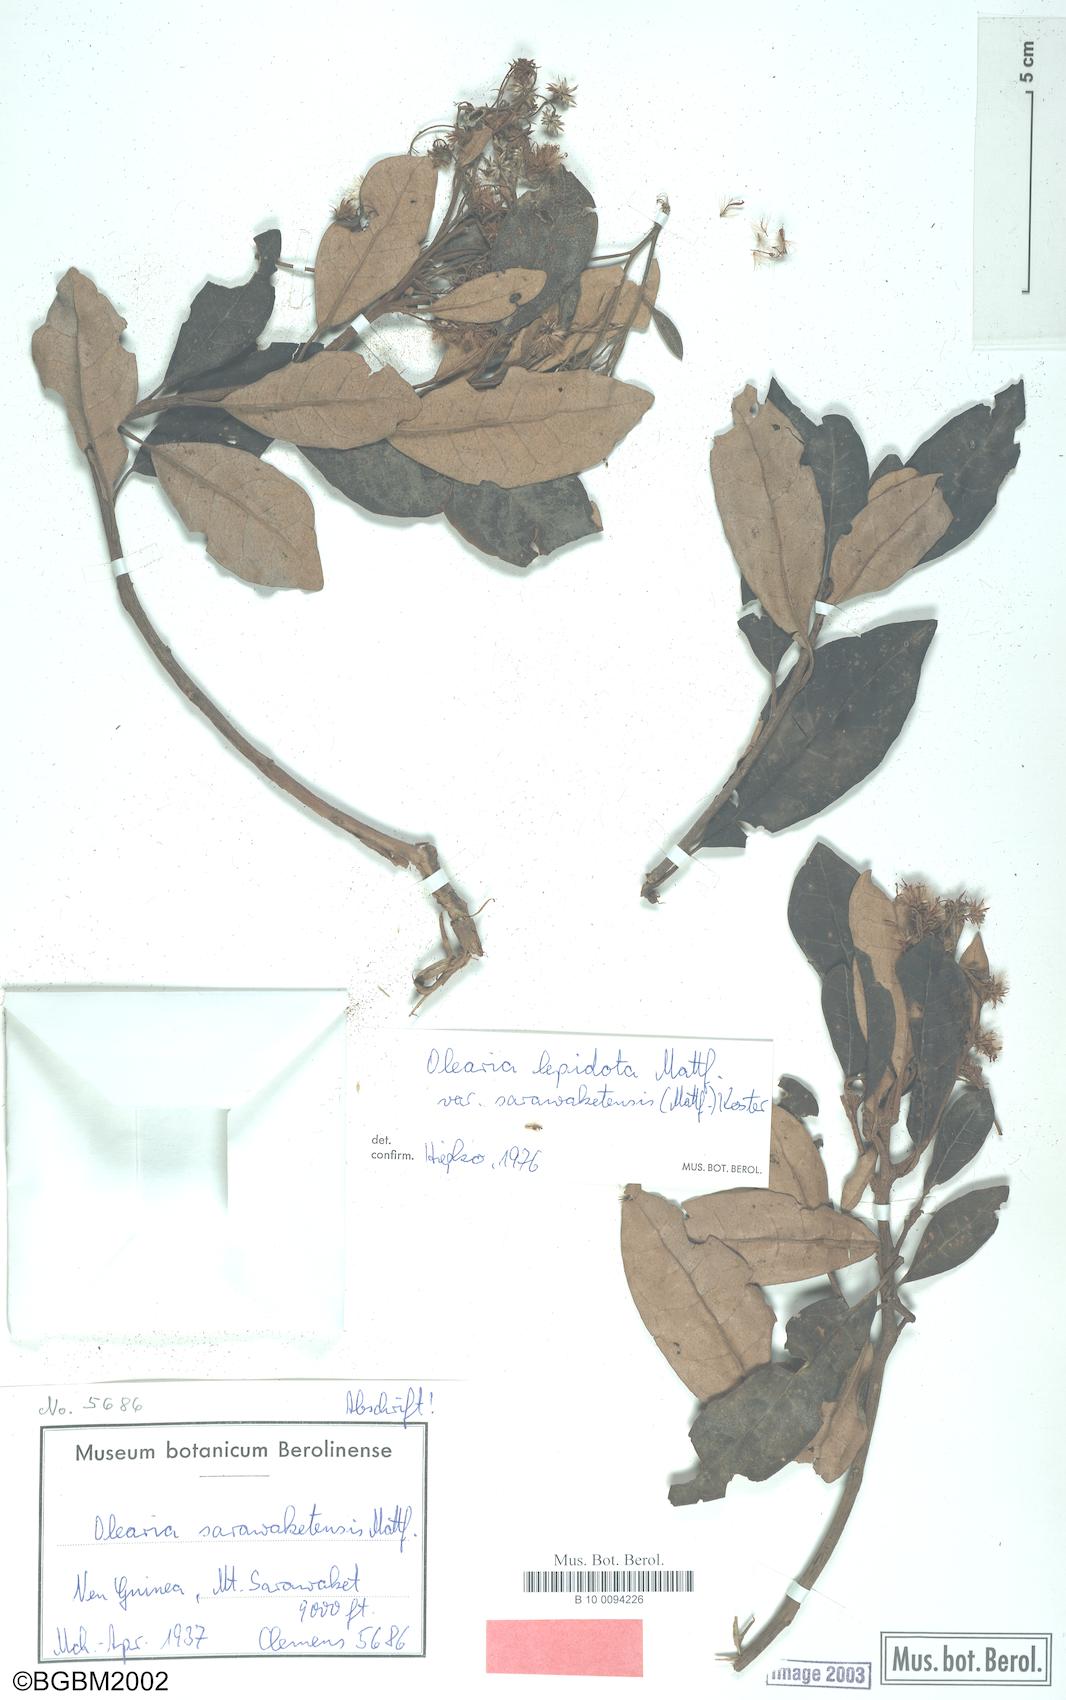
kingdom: Plantae
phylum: Tracheophyta
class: Magnoliopsida
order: Asterales
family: Asteraceae
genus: Olearia
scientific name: Olearia lepidota
